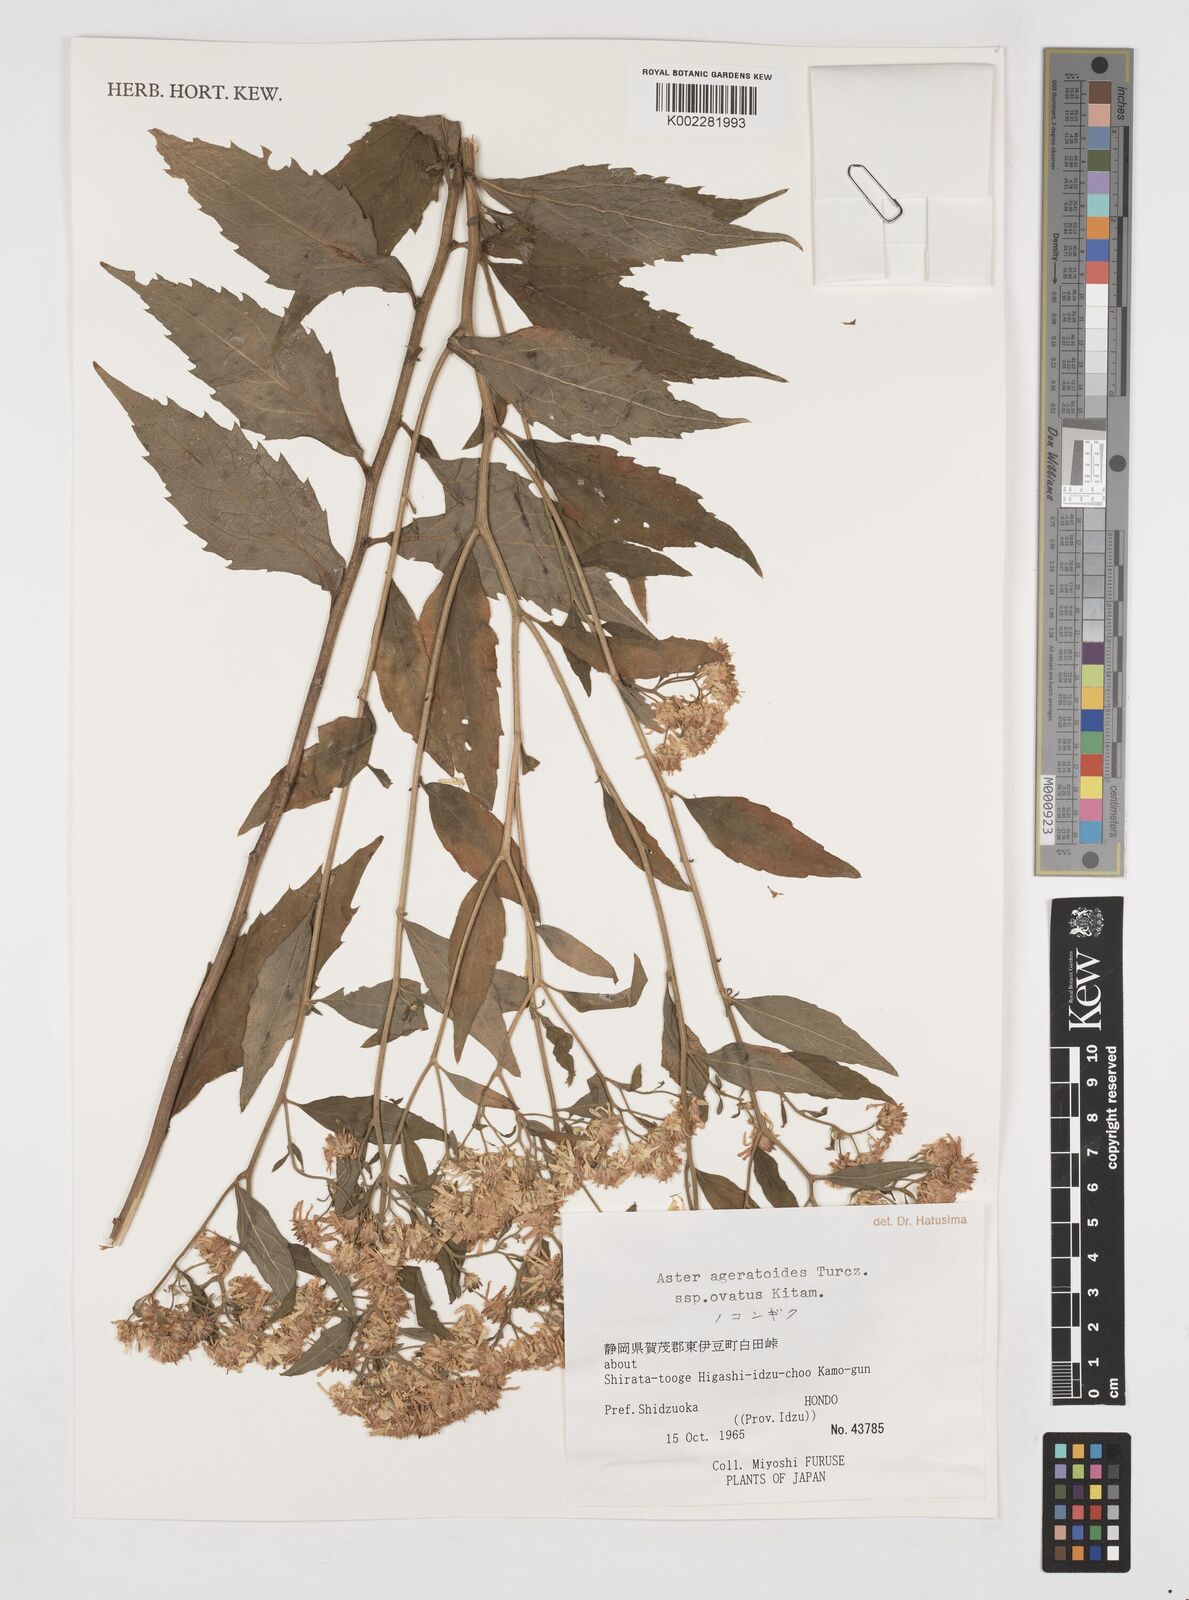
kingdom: Plantae
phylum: Tracheophyta
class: Magnoliopsida
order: Asterales
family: Asteraceae
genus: Galatella
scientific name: Galatella sedifolia
